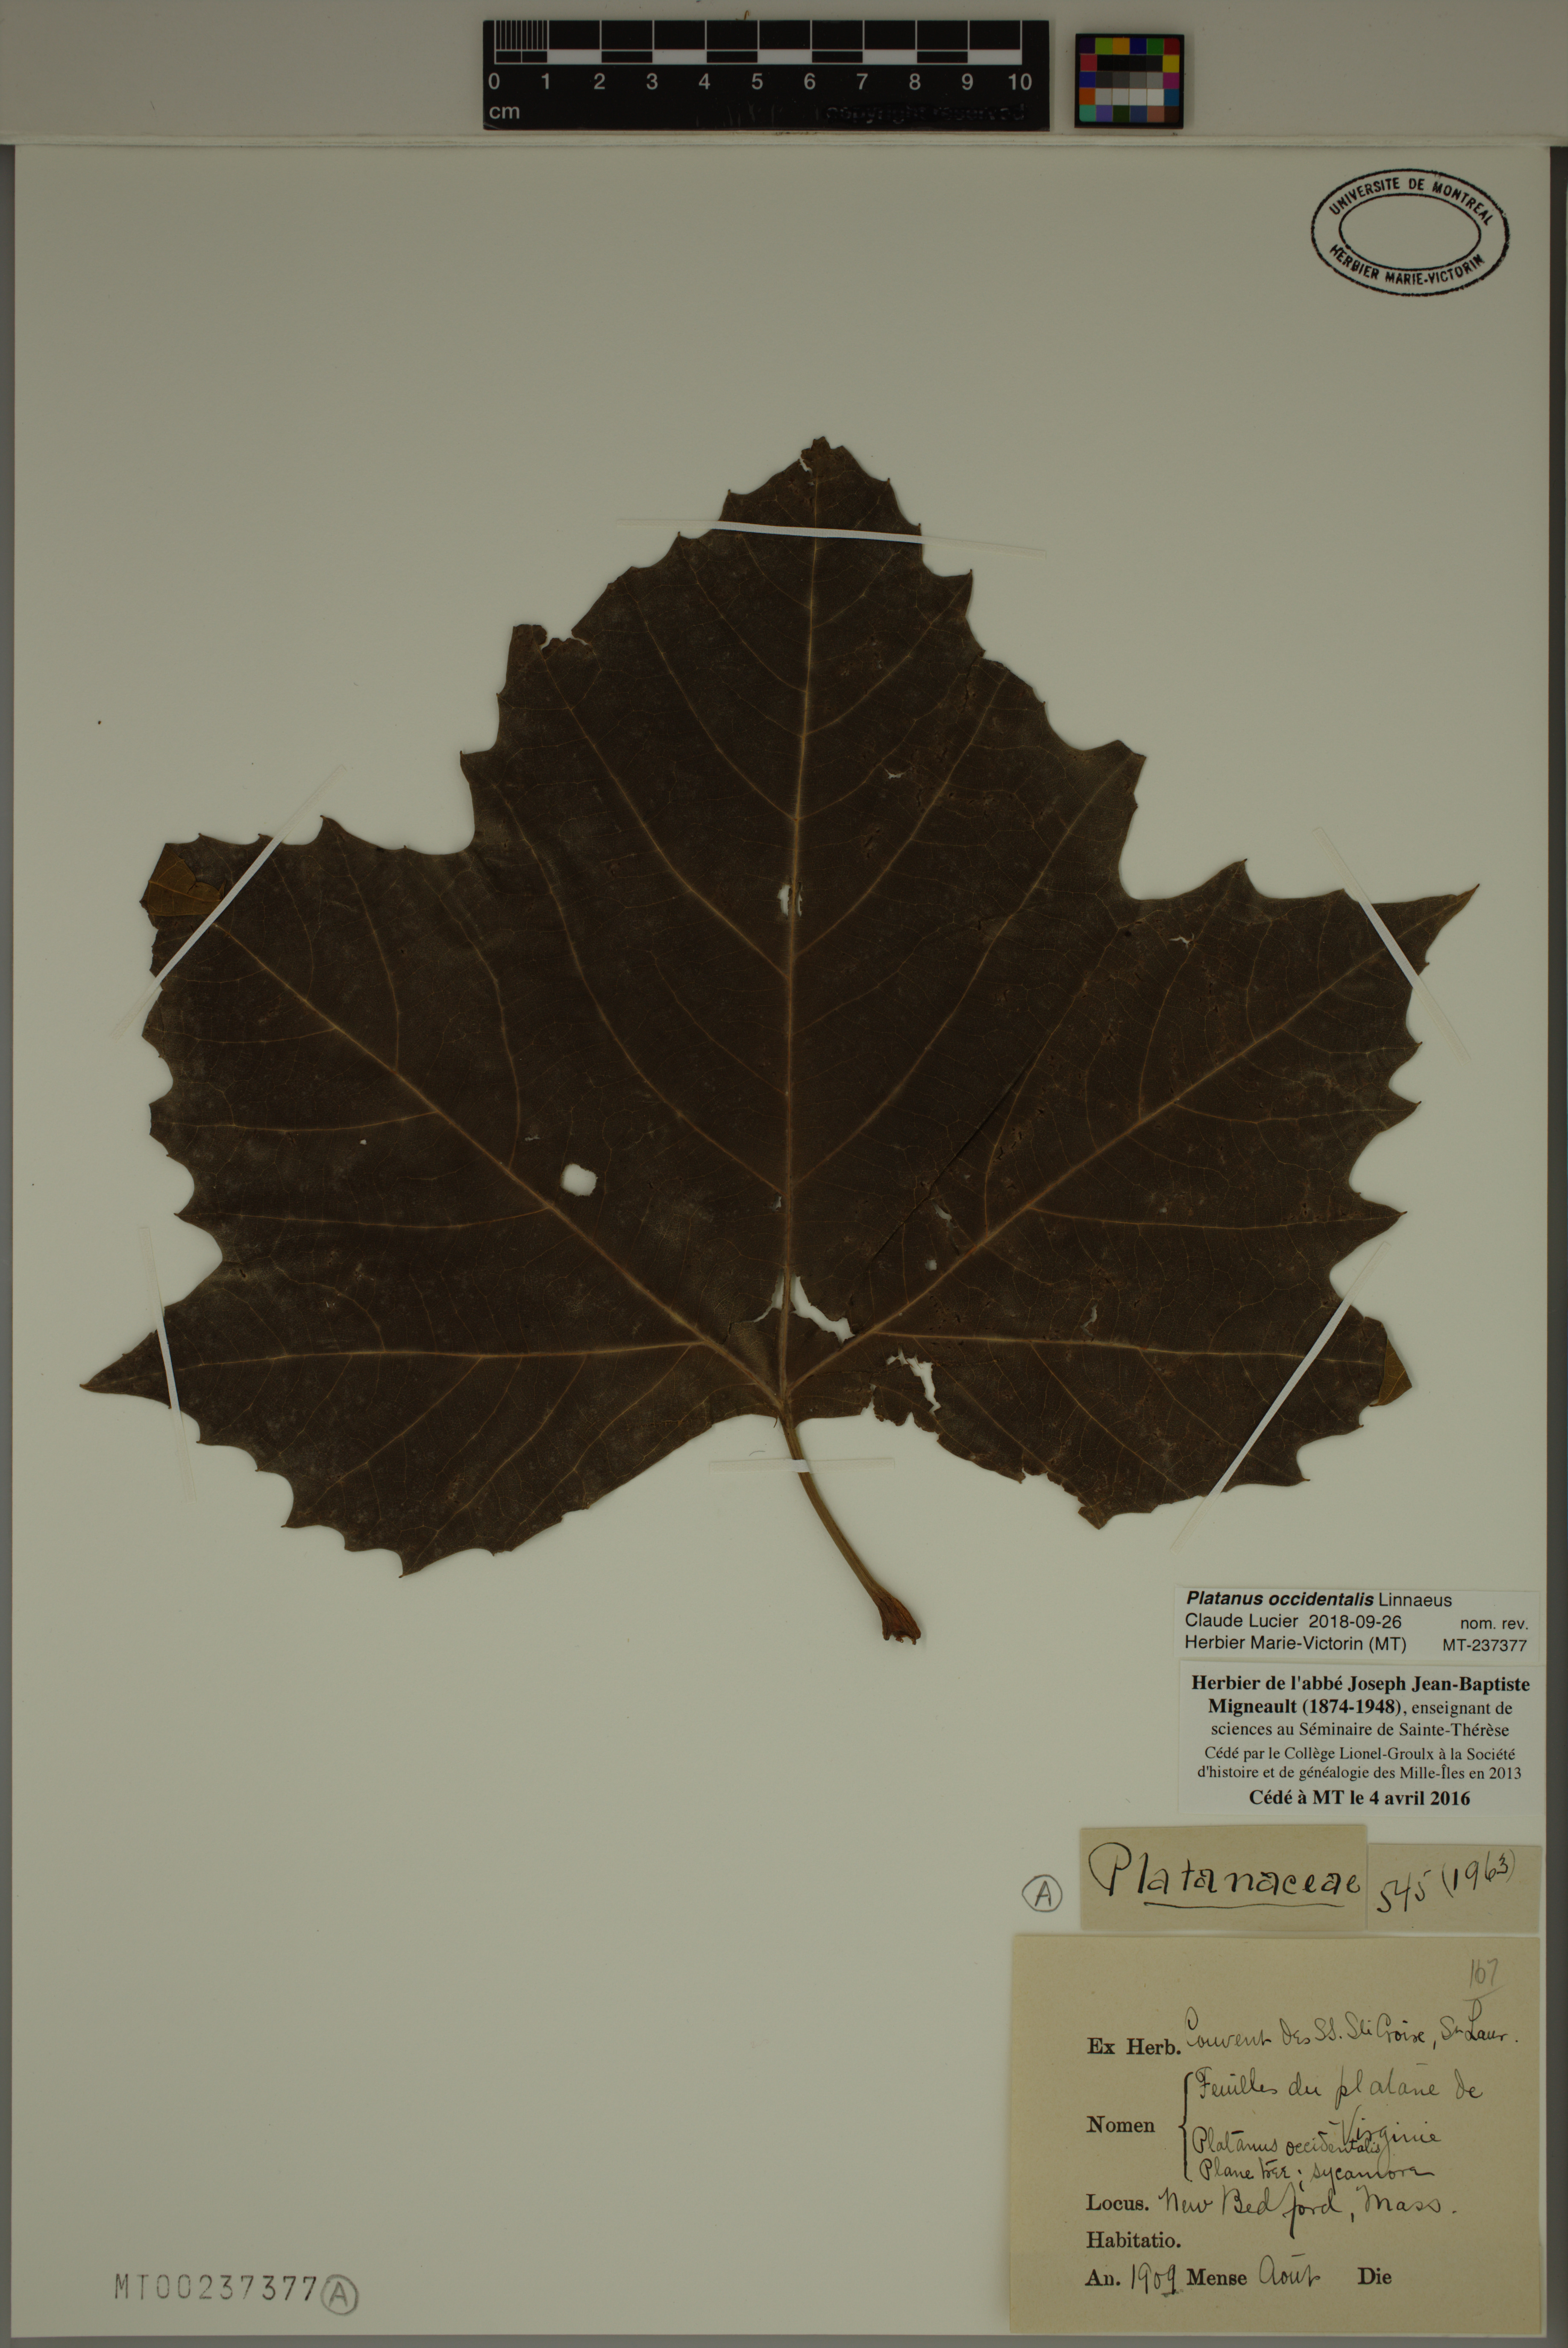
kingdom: Plantae
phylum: Tracheophyta
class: Magnoliopsida
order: Proteales
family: Platanaceae
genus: Platanus
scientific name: Platanus occidentalis
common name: American sycamore
